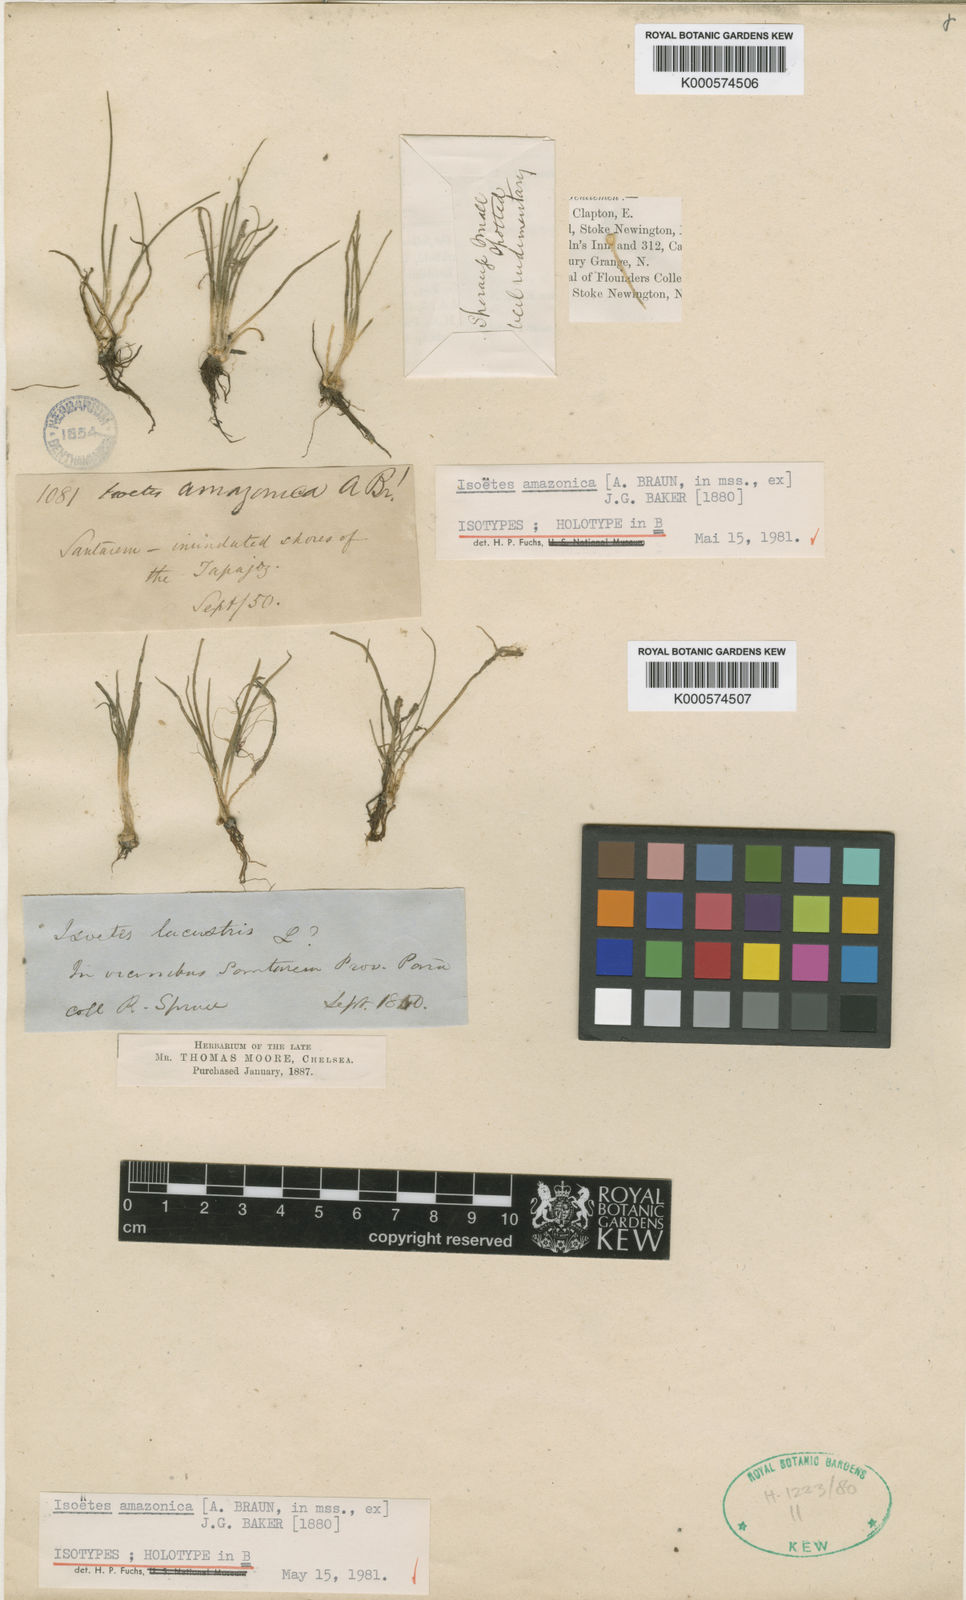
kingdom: Plantae
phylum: Tracheophyta
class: Lycopodiopsida
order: Isoetales
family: Isoetaceae
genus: Isoetes
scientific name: Isoetes
